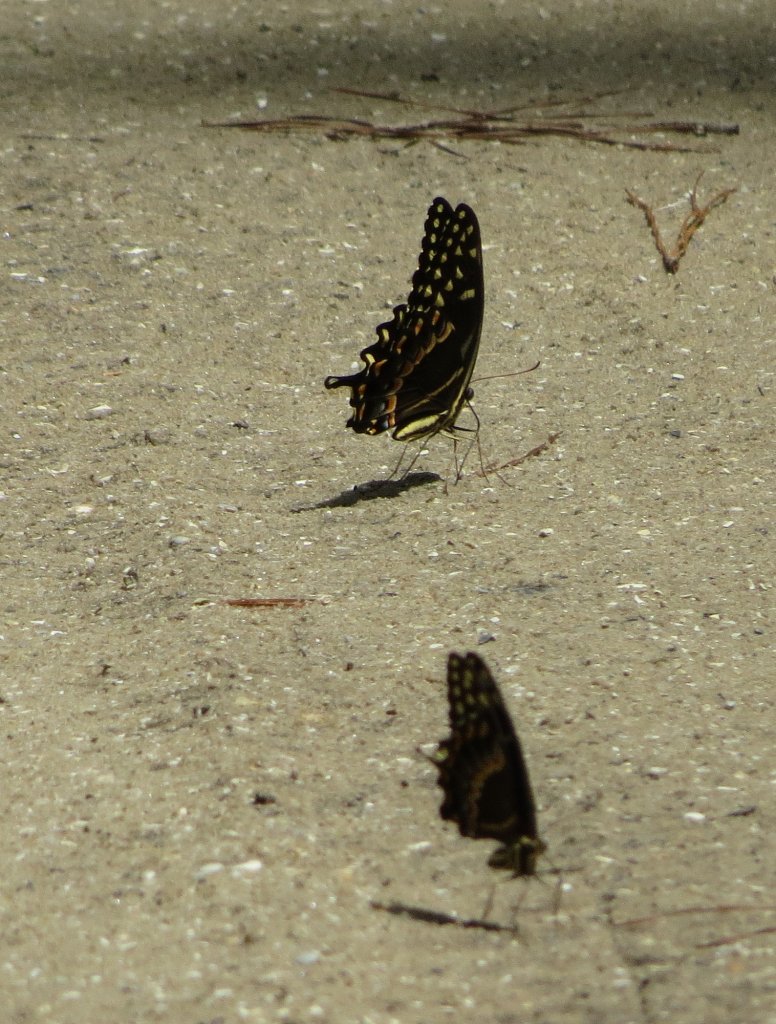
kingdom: Animalia
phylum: Arthropoda
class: Insecta
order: Lepidoptera
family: Papilionidae
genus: Pterourus
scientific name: Pterourus palamedes
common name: Palamedes Swallowtail
